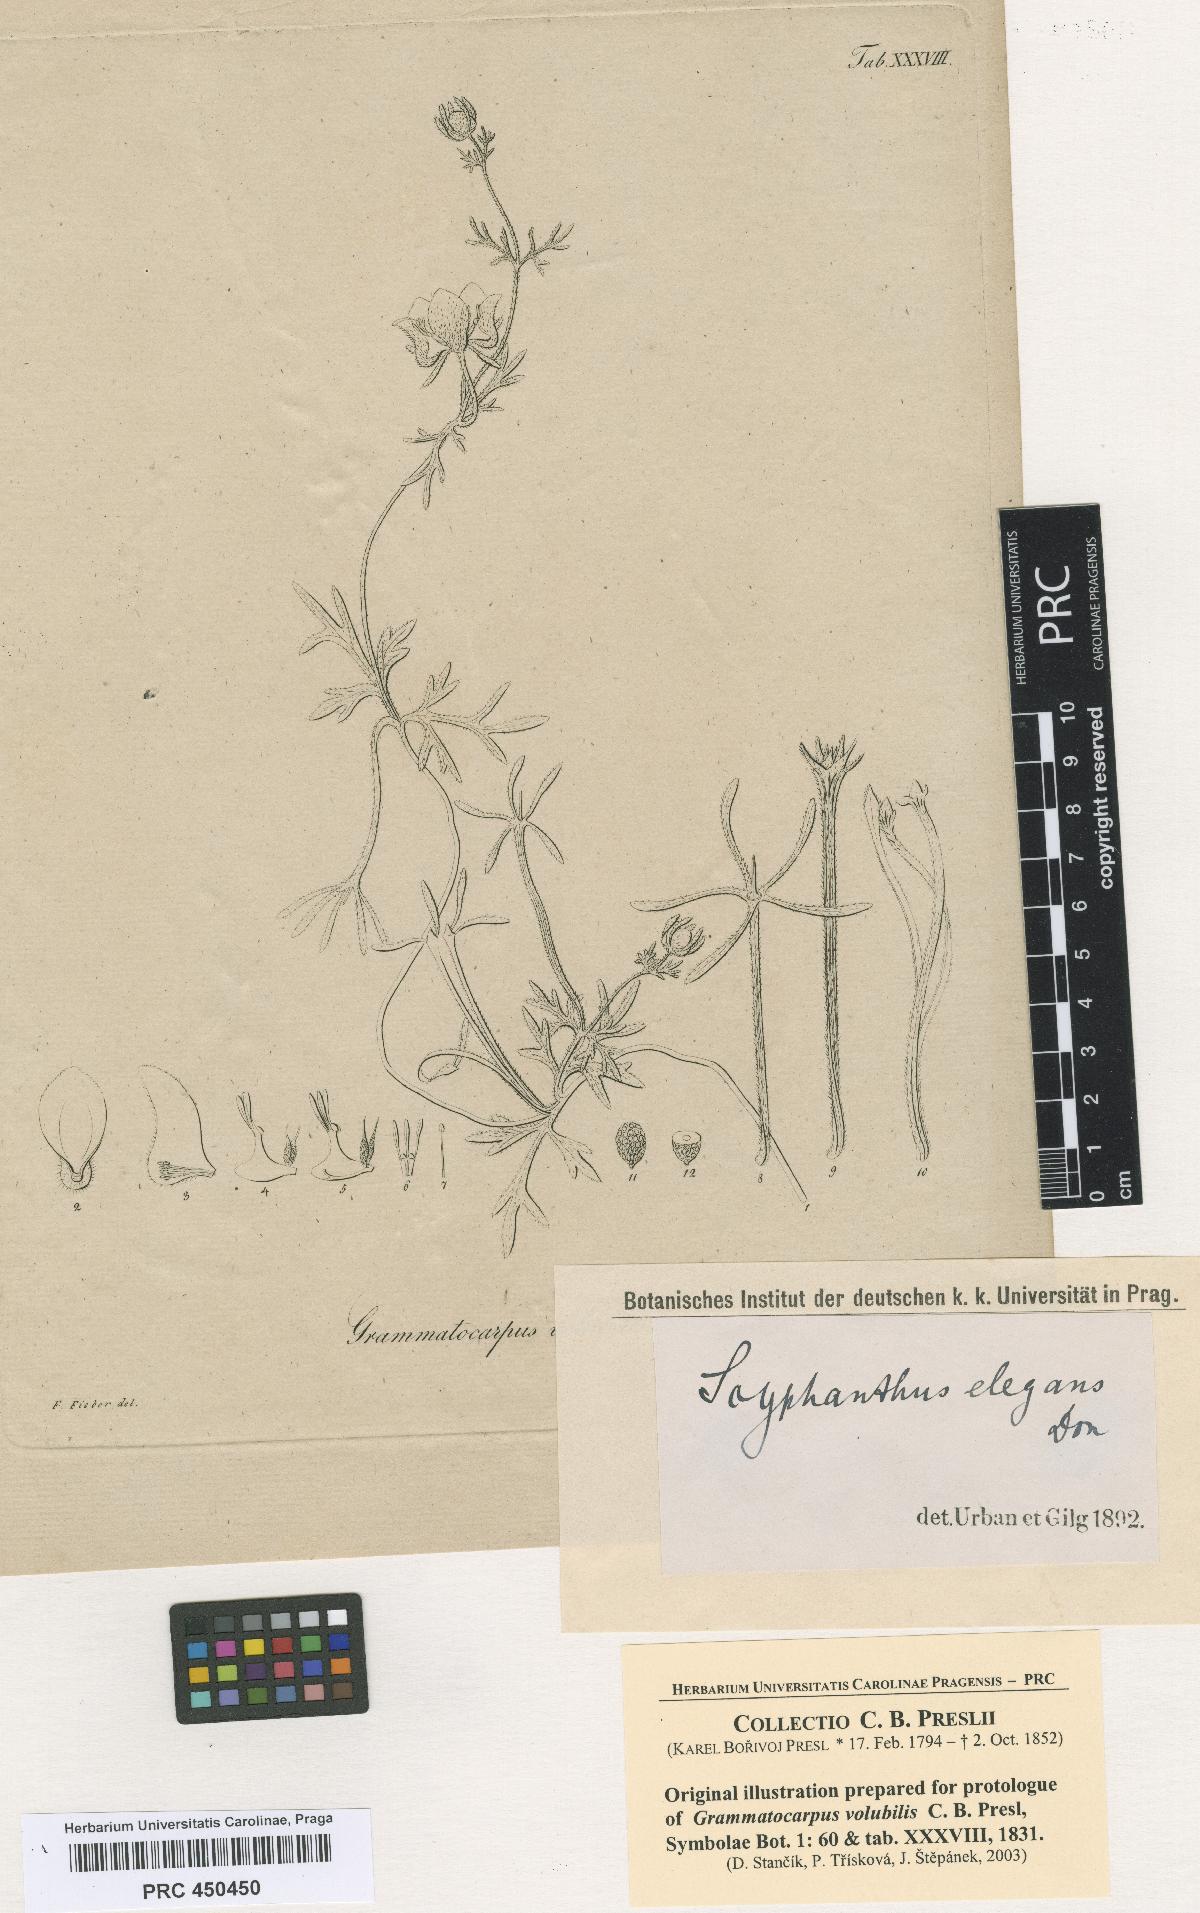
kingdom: Plantae
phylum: Tracheophyta
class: Magnoliopsida
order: Cornales
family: Loasaceae
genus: Scyphanthus
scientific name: Scyphanthus elegans
